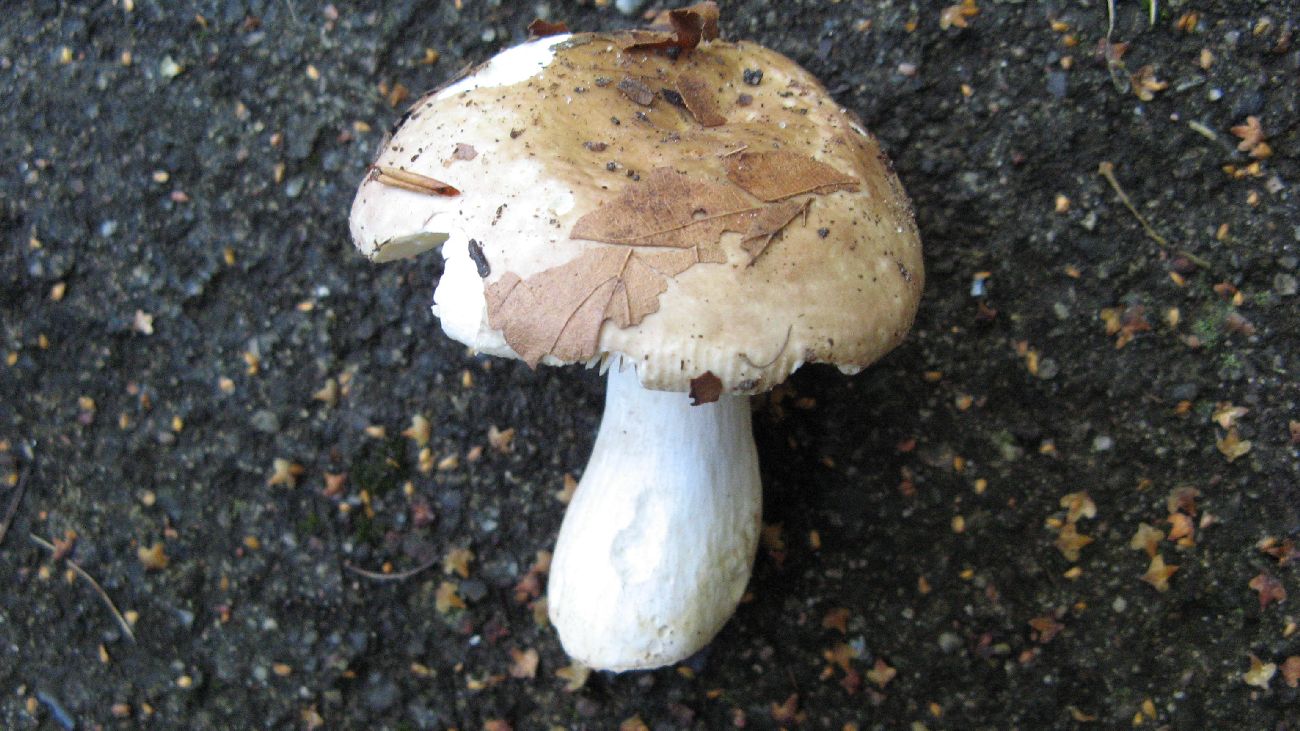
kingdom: Fungi
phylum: Basidiomycota
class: Agaricomycetes
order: Russulales
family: Russulaceae
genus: Russula
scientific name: Russula veternosa
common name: blødkødet skørhat
